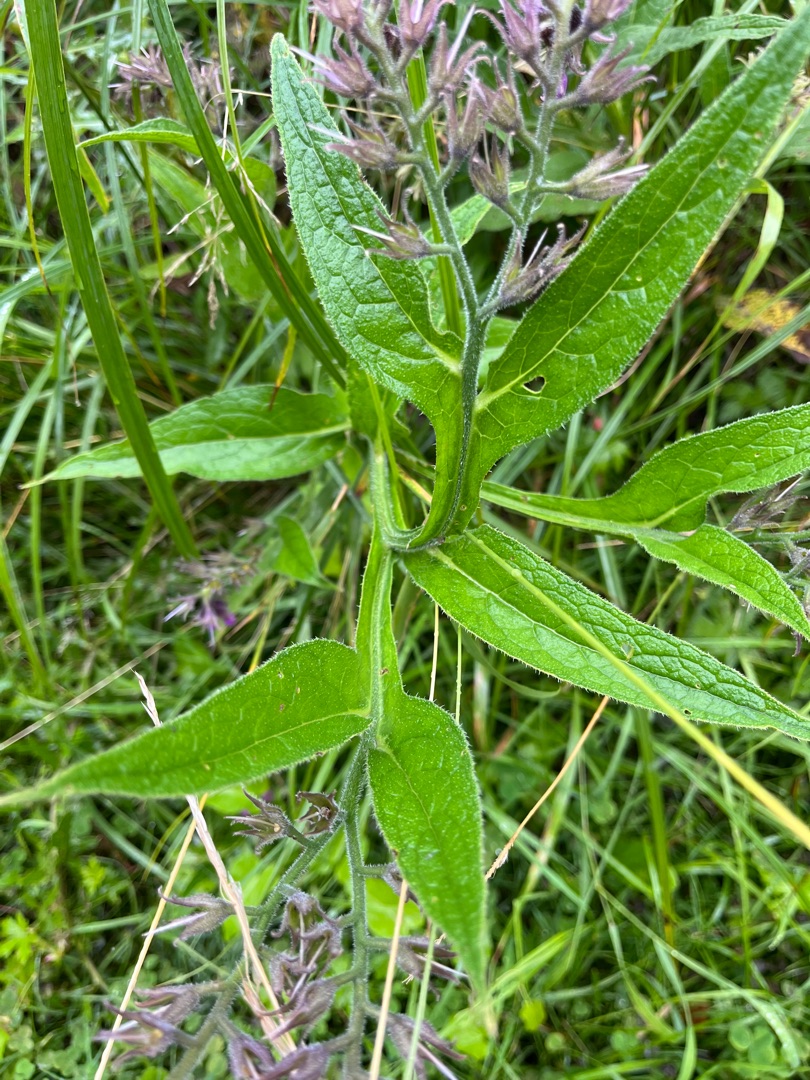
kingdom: Plantae
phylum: Tracheophyta
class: Magnoliopsida
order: Boraginales
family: Boraginaceae
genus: Symphytum
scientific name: Symphytum officinale
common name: Læge-kulsukker
